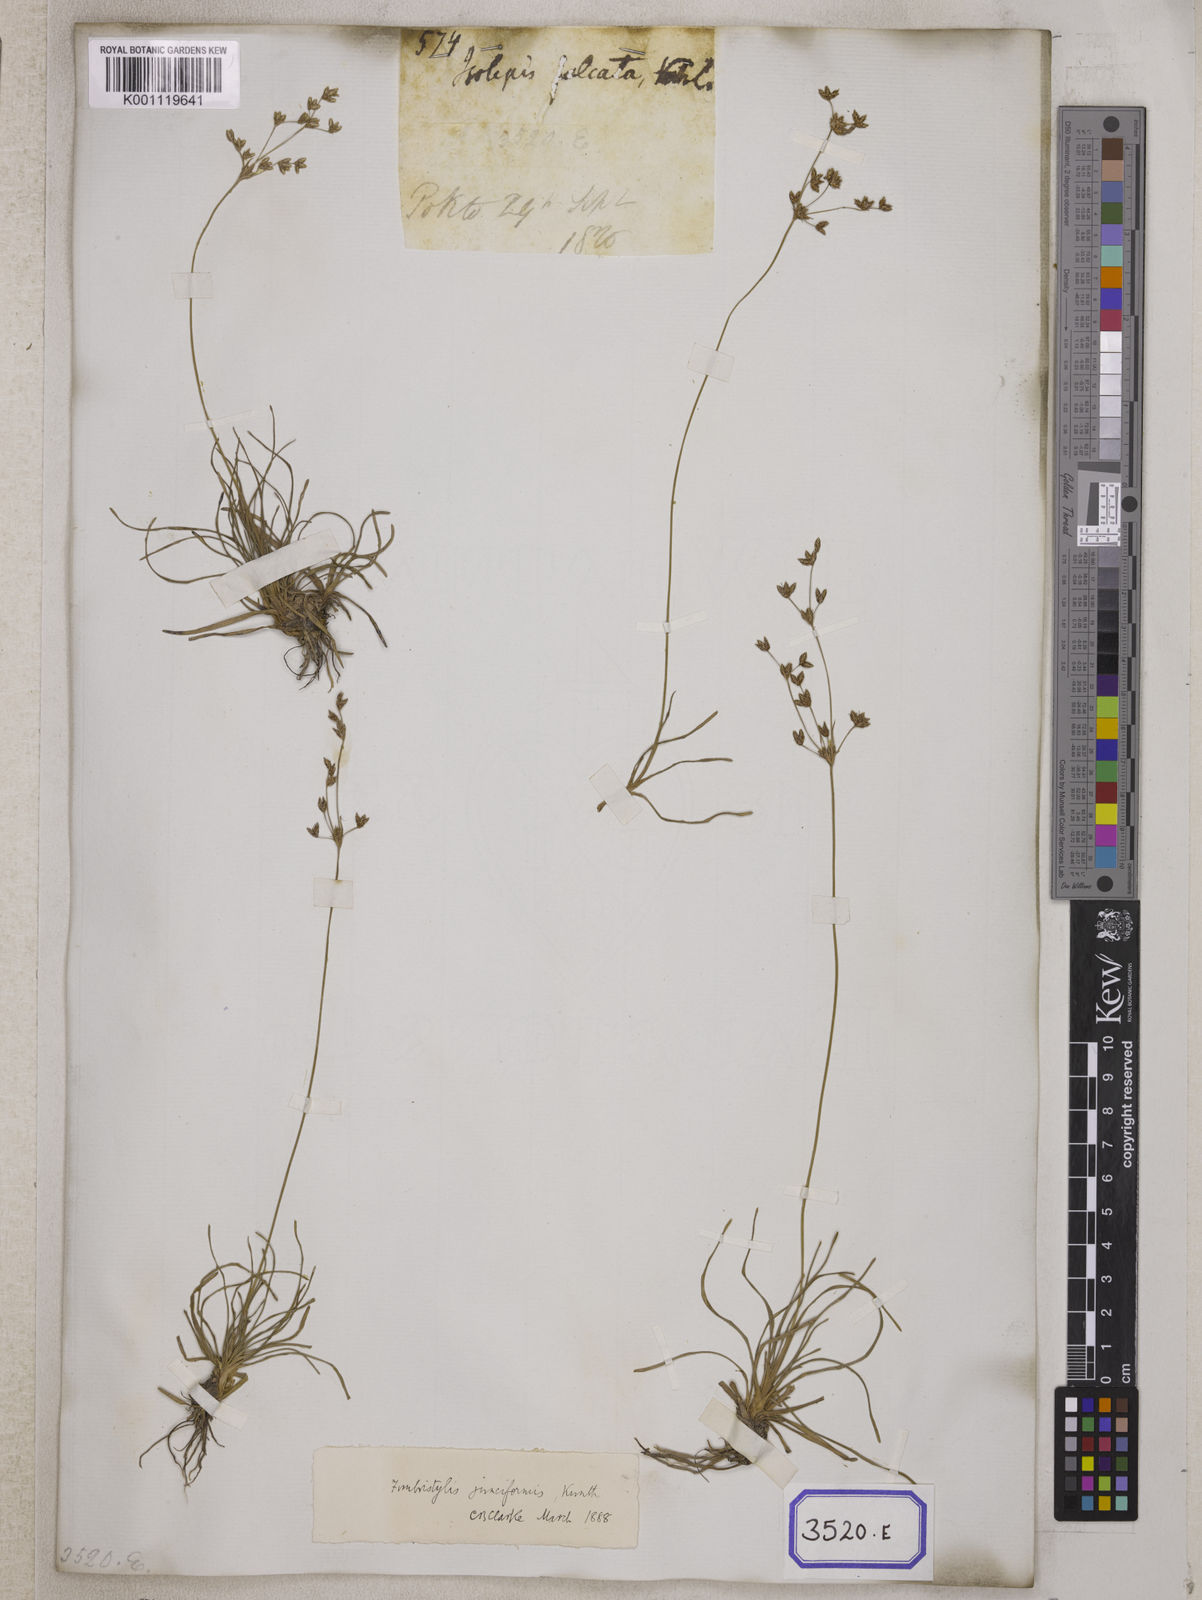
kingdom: Plantae
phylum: Tracheophyta
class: Liliopsida
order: Poales
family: Cyperaceae
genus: Fimbristylis
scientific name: Fimbristylis
